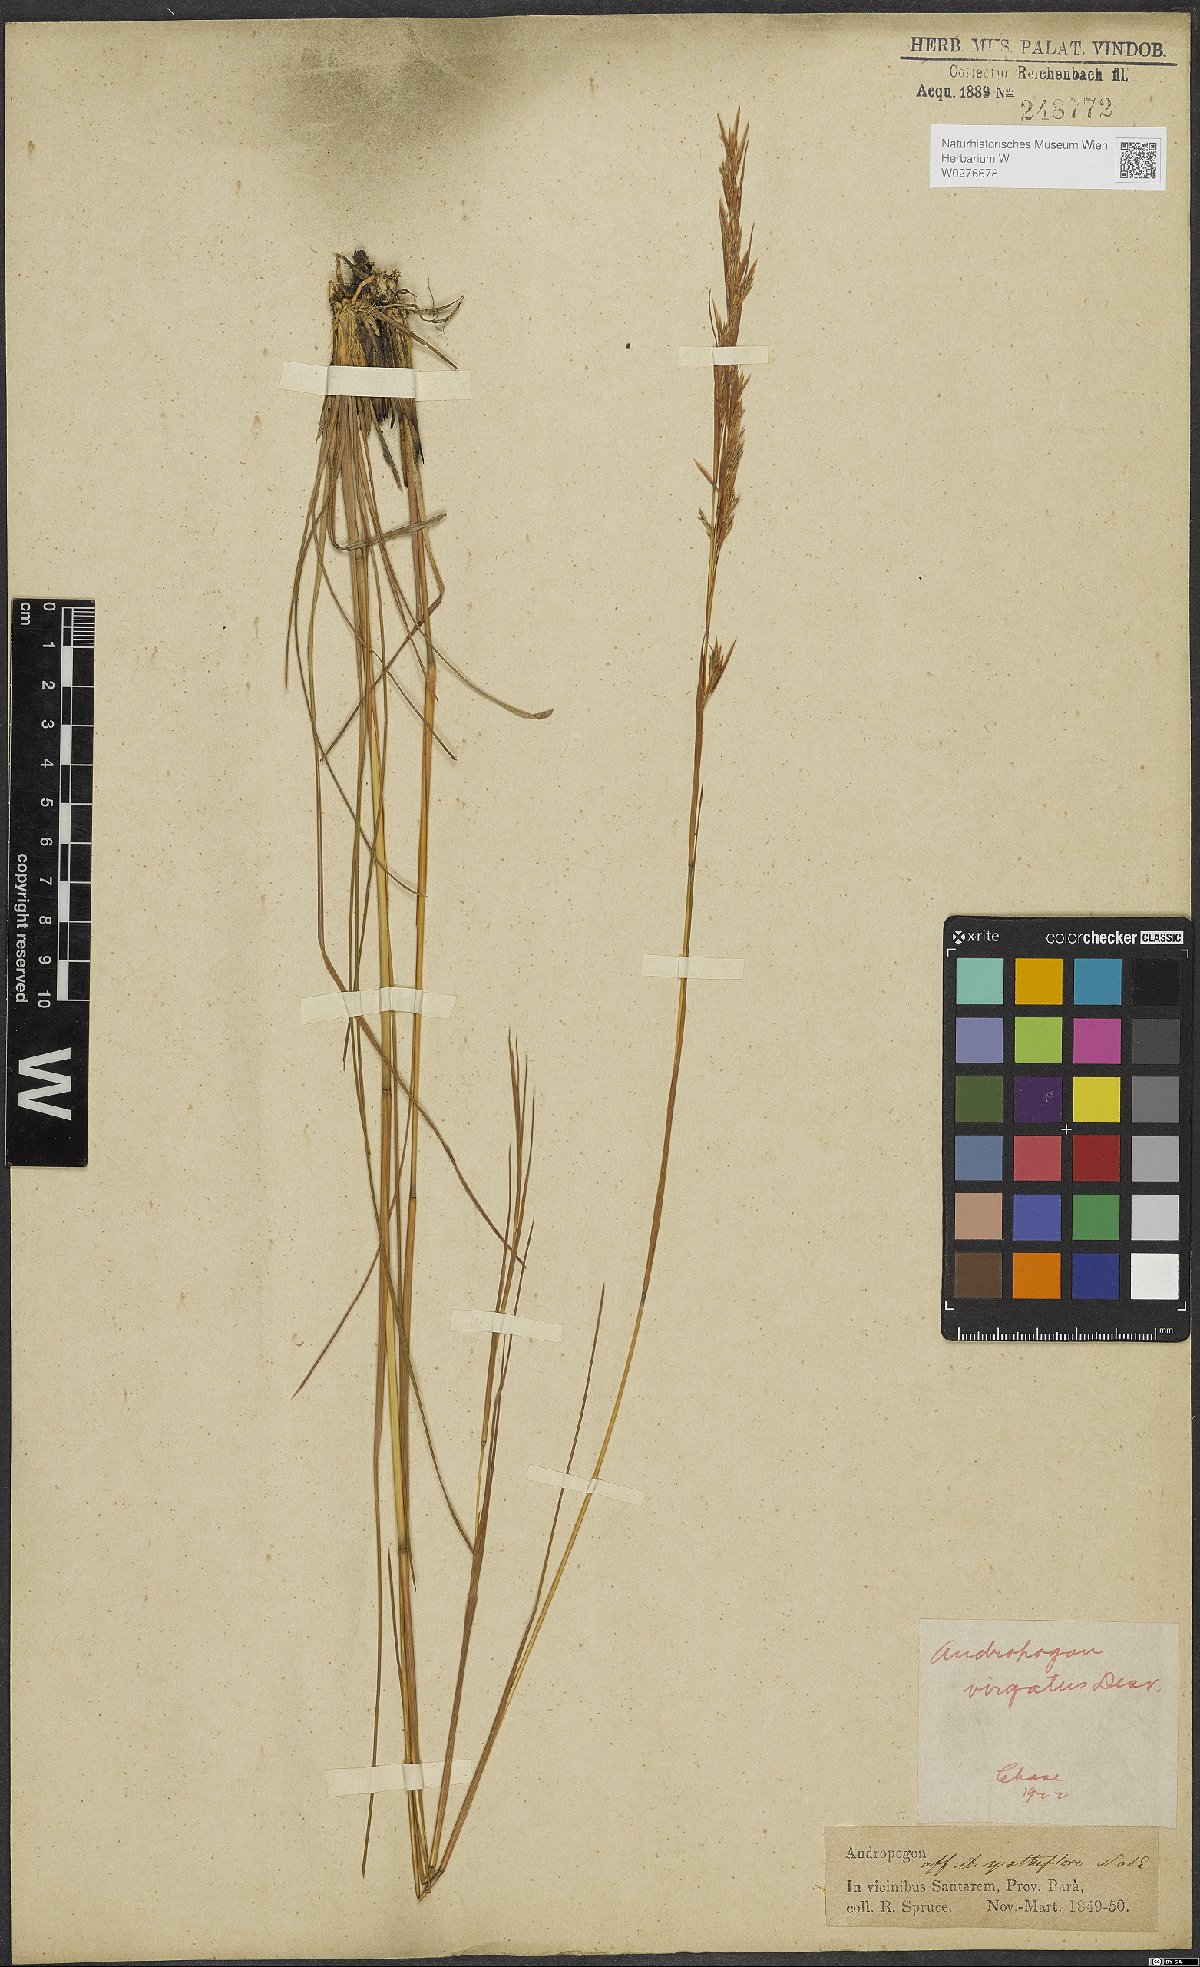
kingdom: Plantae
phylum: Tracheophyta
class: Liliopsida
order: Poales
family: Poaceae
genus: Andropogon
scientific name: Andropogon virgatus
